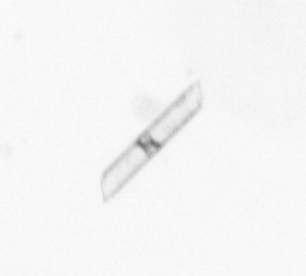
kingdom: Chromista
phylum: Ochrophyta
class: Bacillariophyceae
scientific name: Bacillariophyceae
